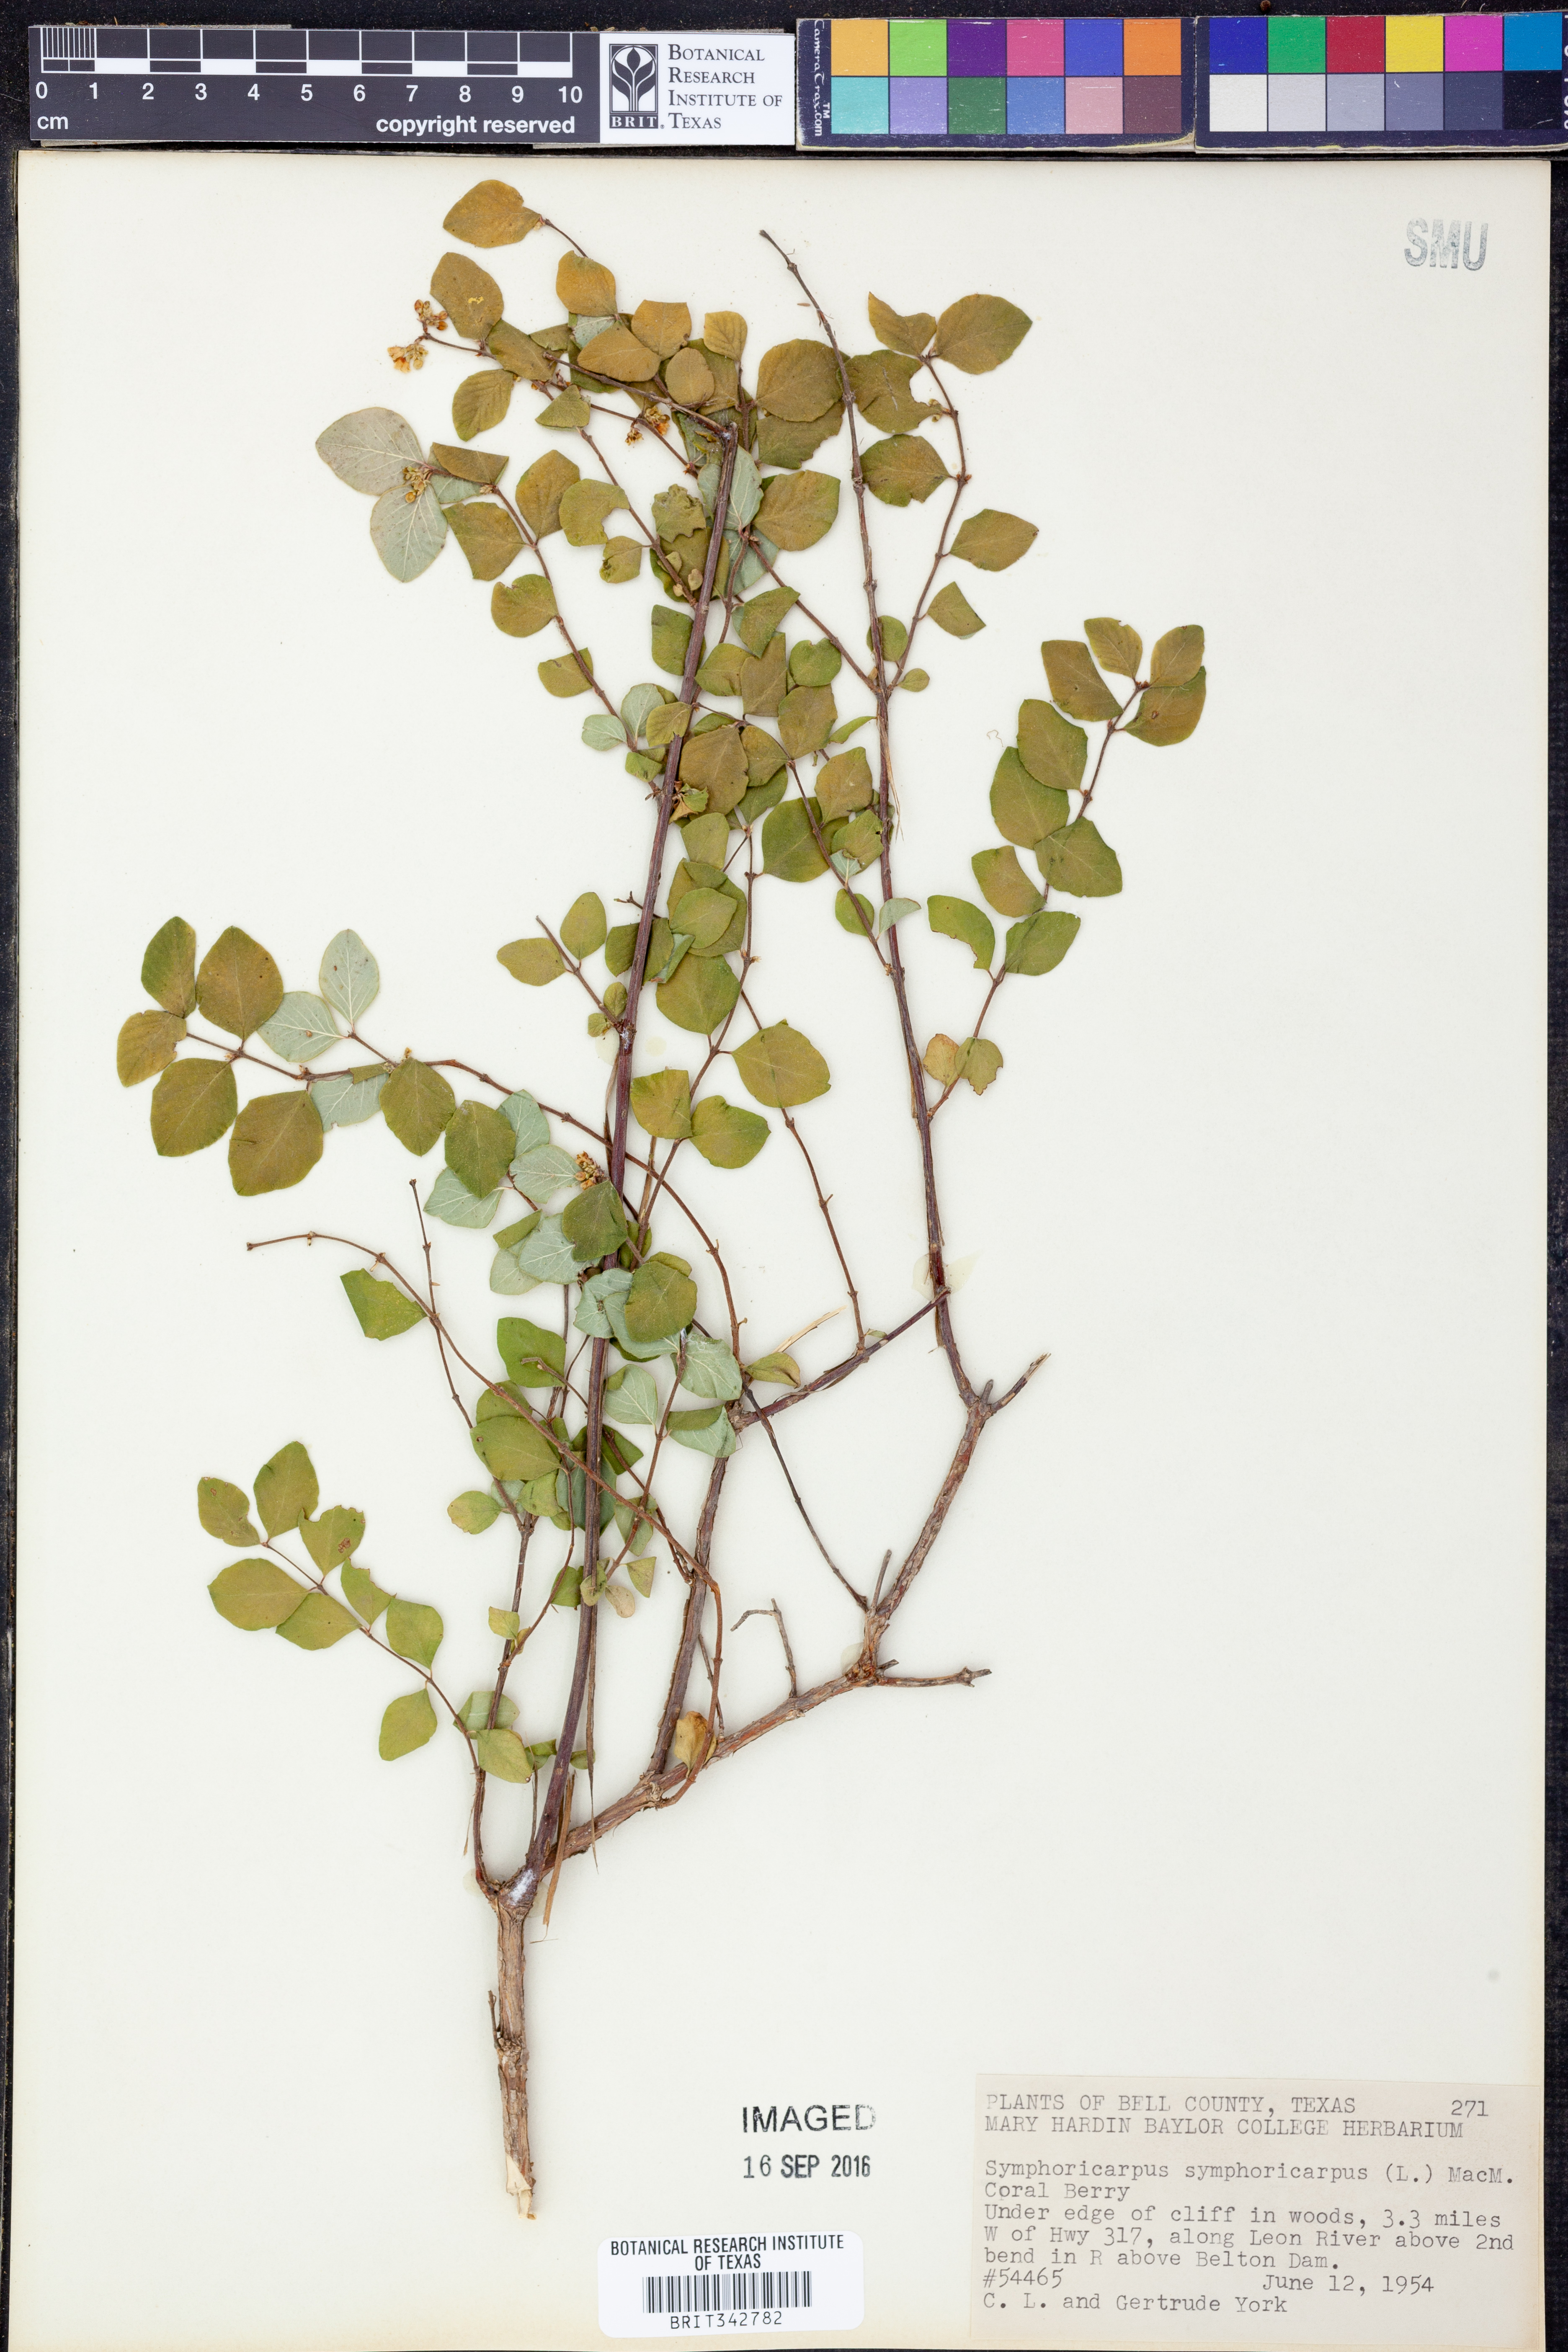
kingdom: Plantae
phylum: Tracheophyta
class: Magnoliopsida
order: Dipsacales
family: Caprifoliaceae
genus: Symphoricarpos
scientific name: Symphoricarpos orbiculatus
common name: Coralberry
